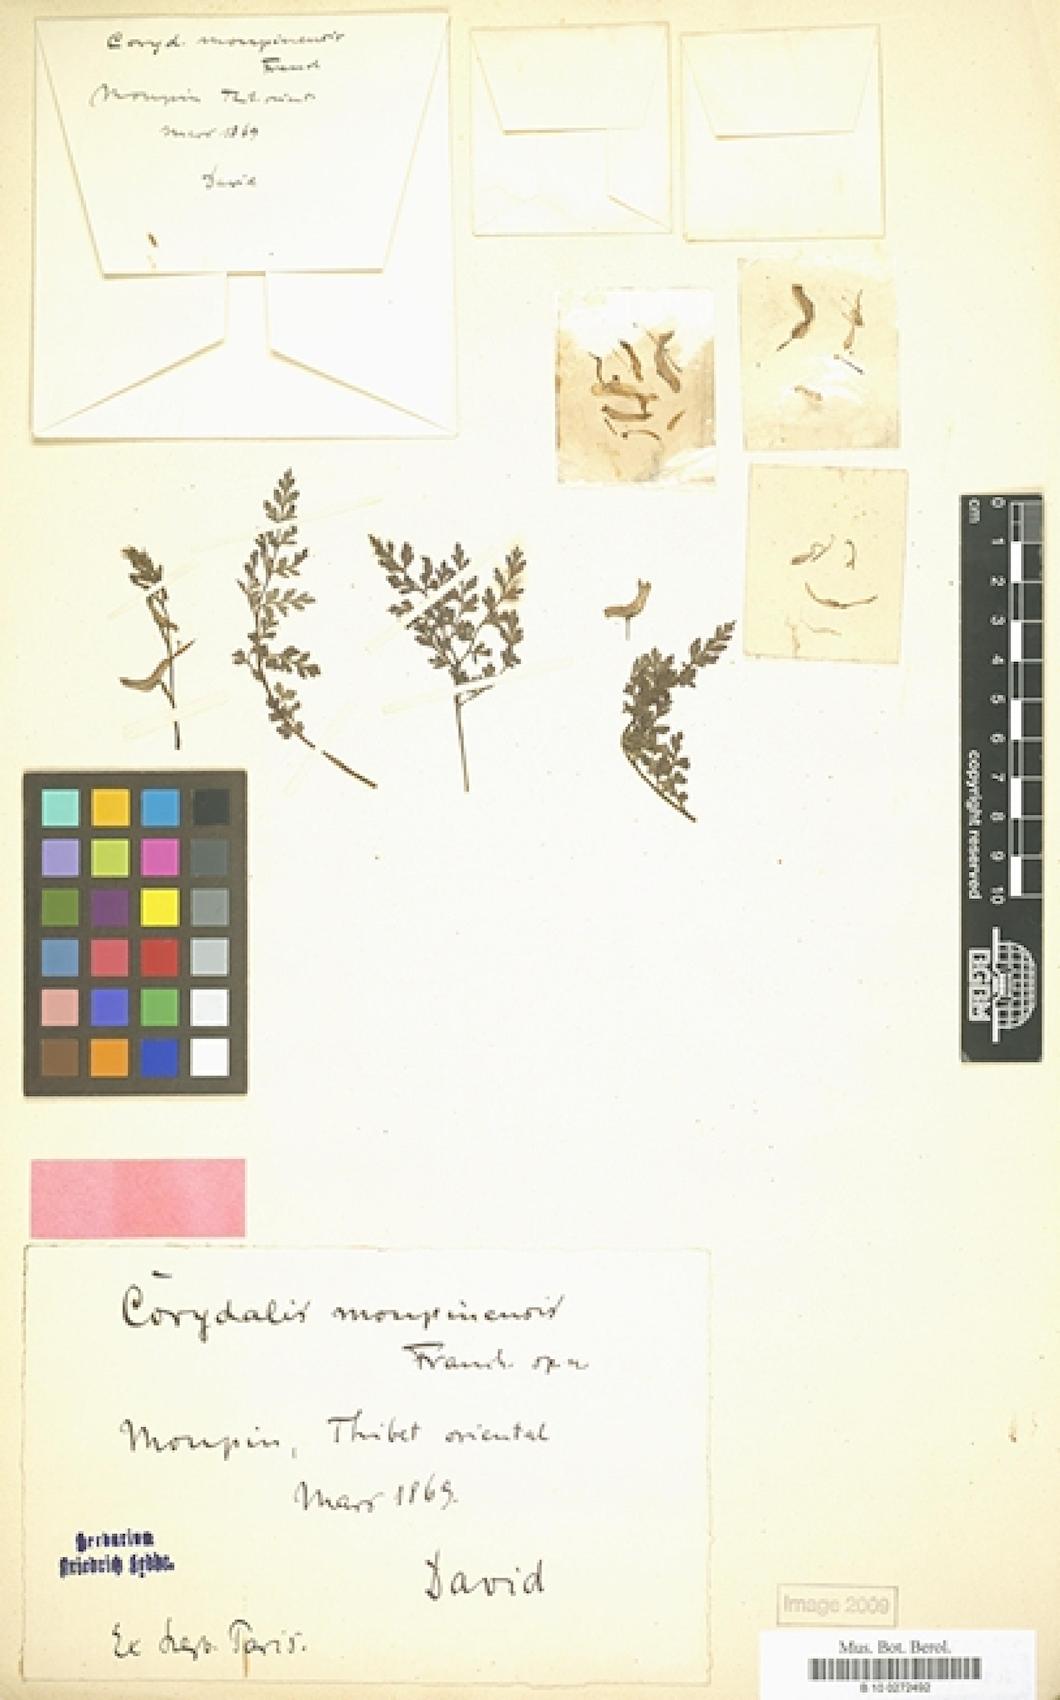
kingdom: Plantae
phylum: Tracheophyta
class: Magnoliopsida
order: Ranunculales
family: Papaveraceae
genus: Corydalis
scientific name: Corydalis moupinensis
